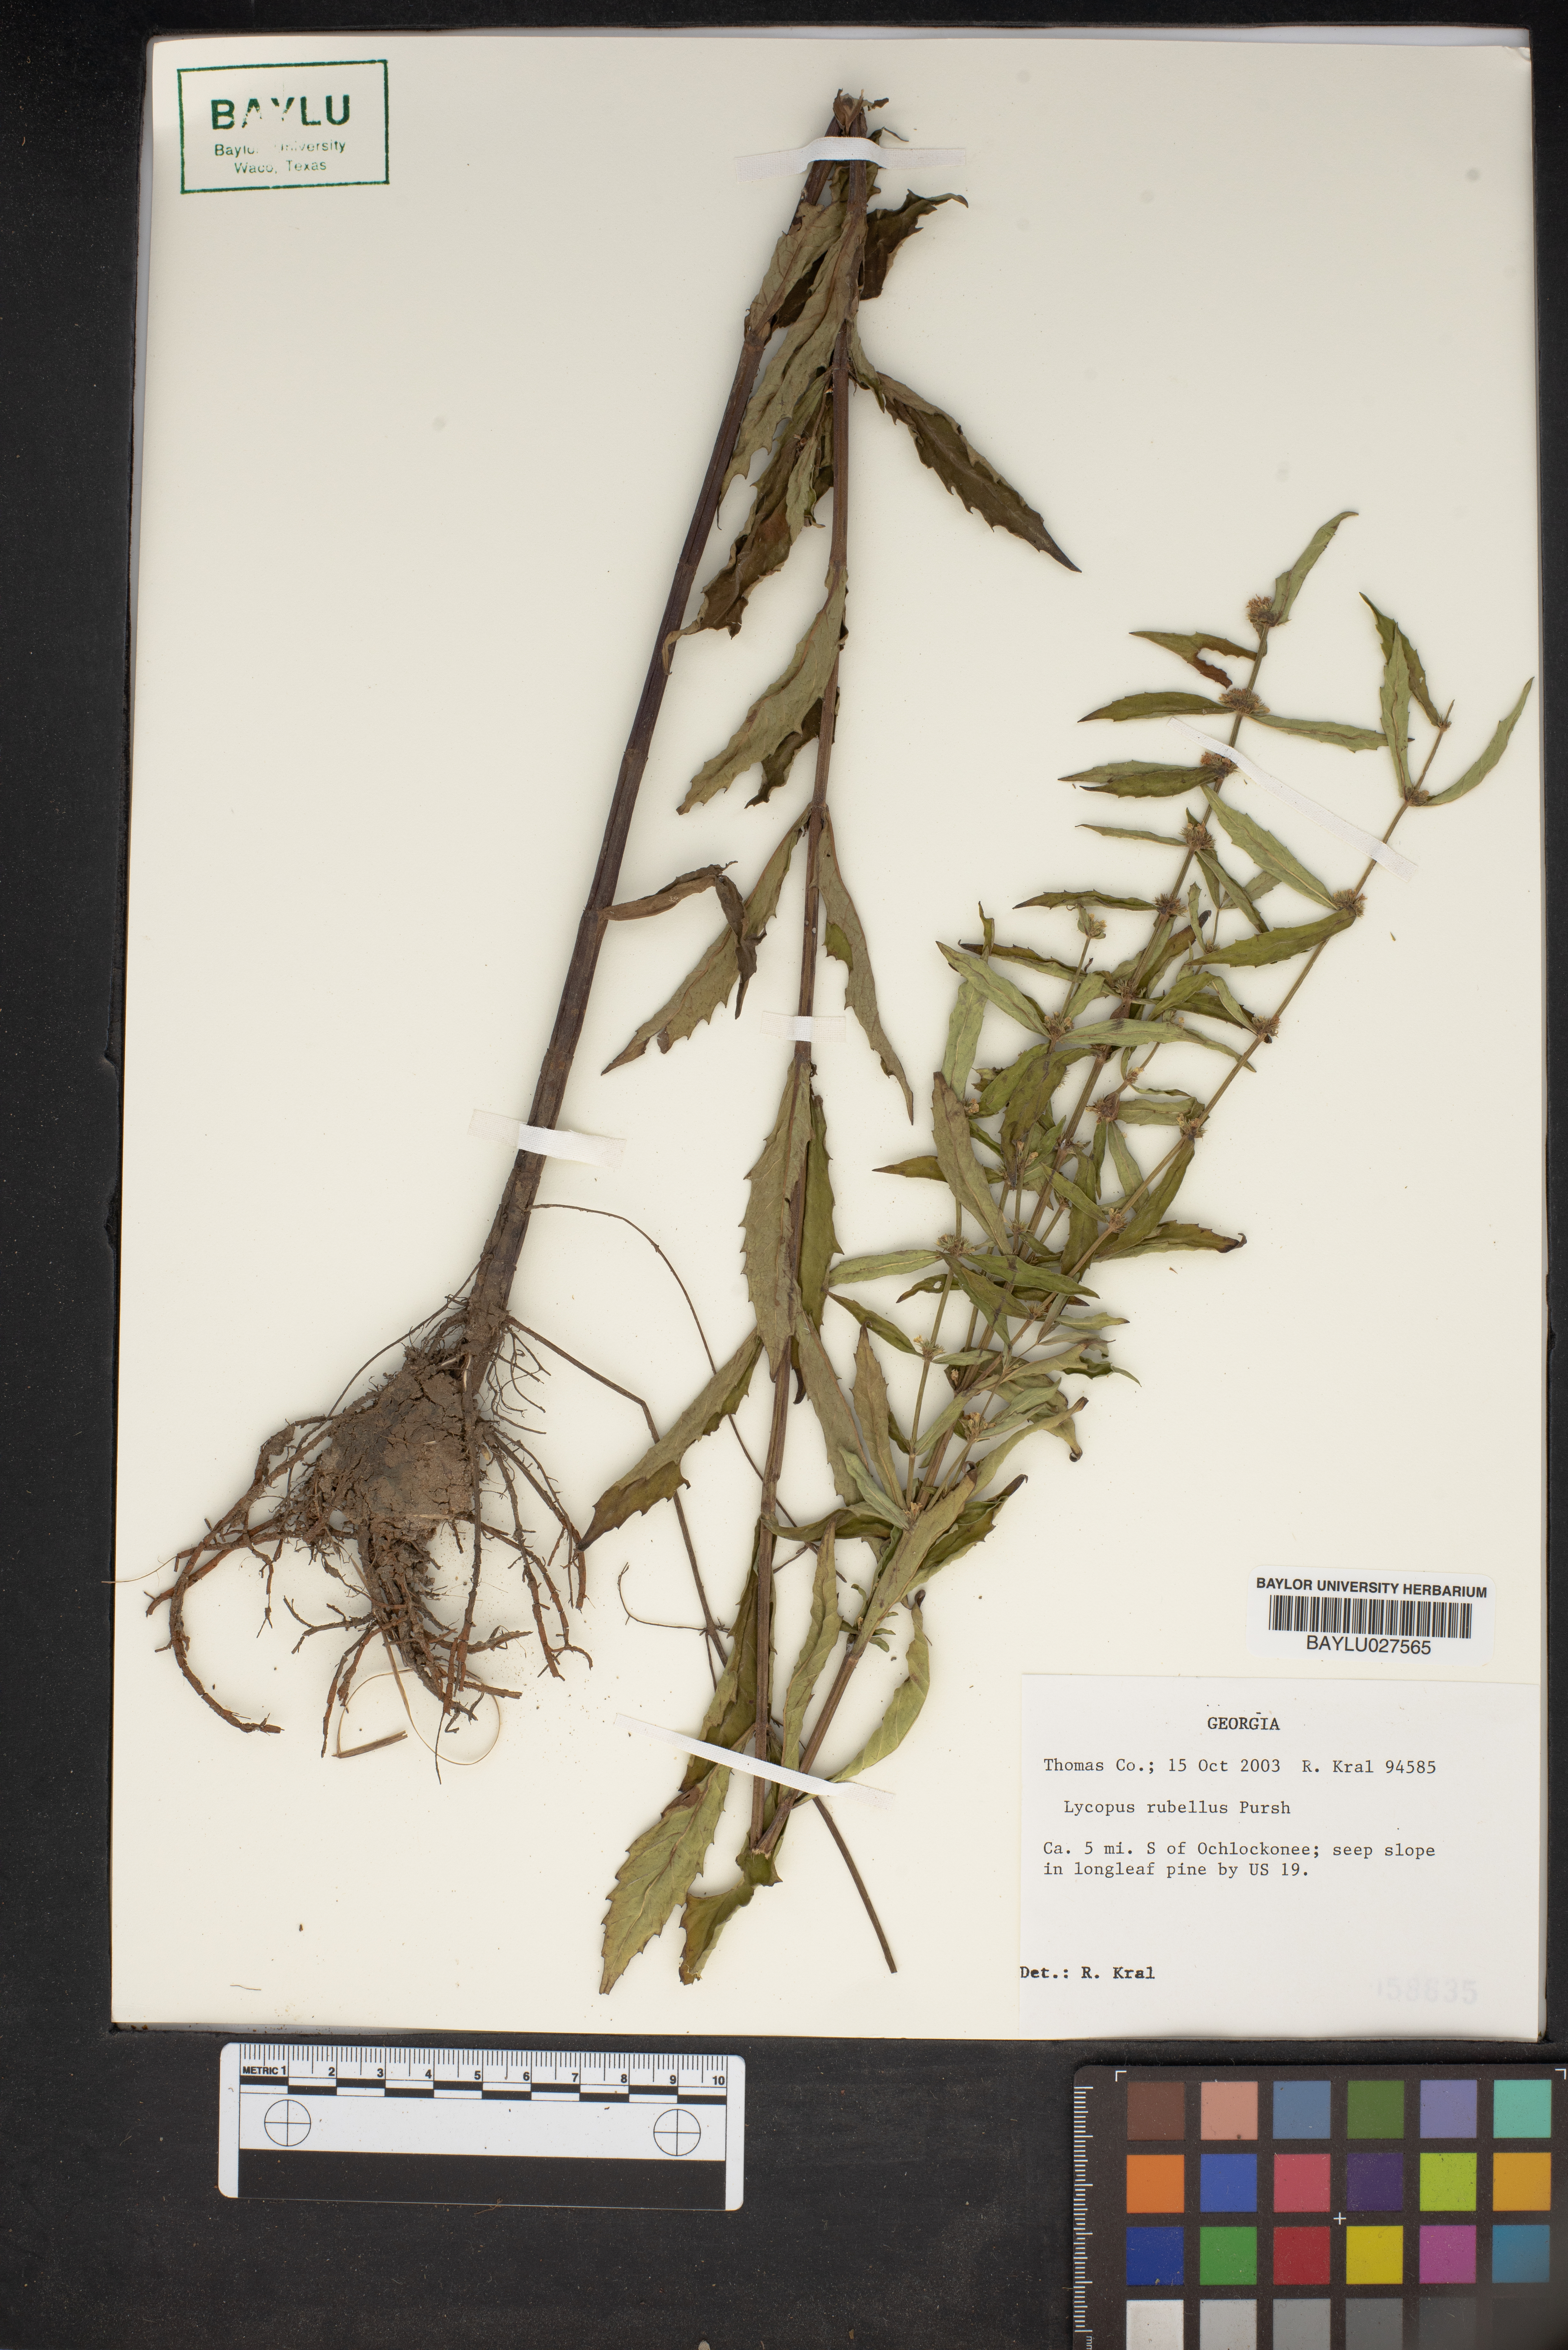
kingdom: Plantae
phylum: Tracheophyta
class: Magnoliopsida
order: Lamiales
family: Lamiaceae
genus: Lycopus
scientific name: Lycopus rubellus
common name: Stalked bugleweed
